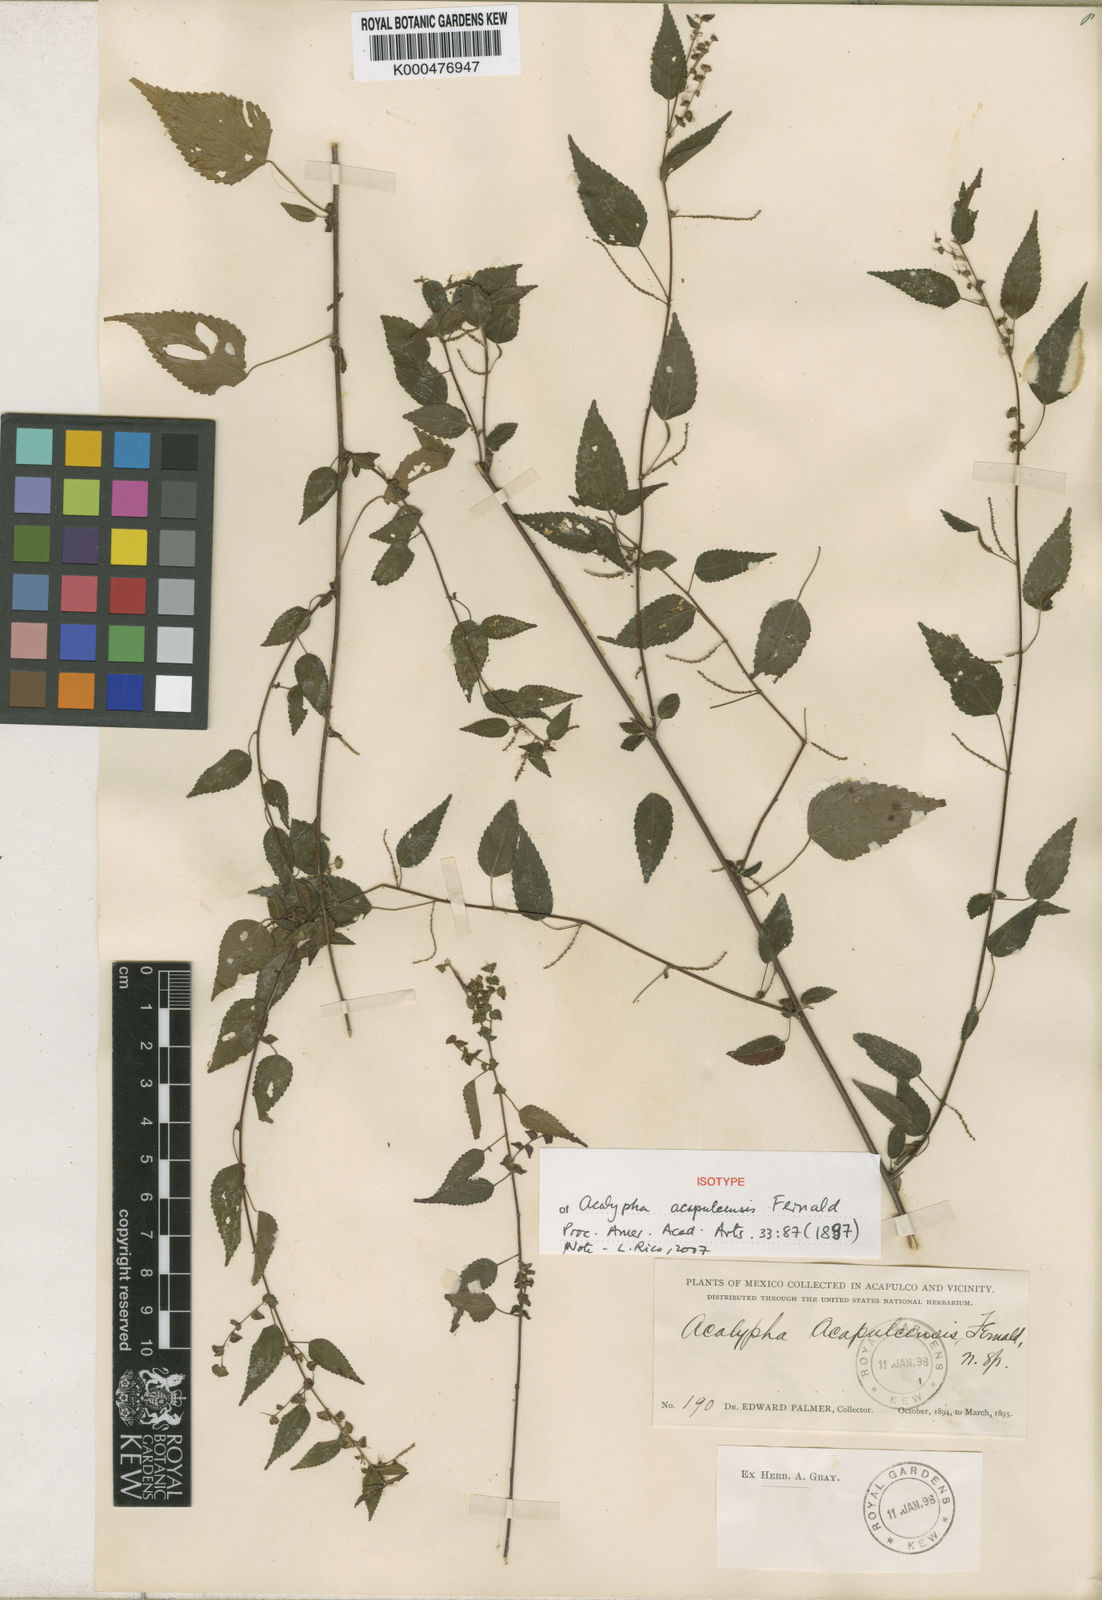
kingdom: Plantae
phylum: Tracheophyta
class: Magnoliopsida
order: Malpighiales
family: Euphorbiaceae
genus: Acalypha
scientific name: Acalypha acapulcensis
